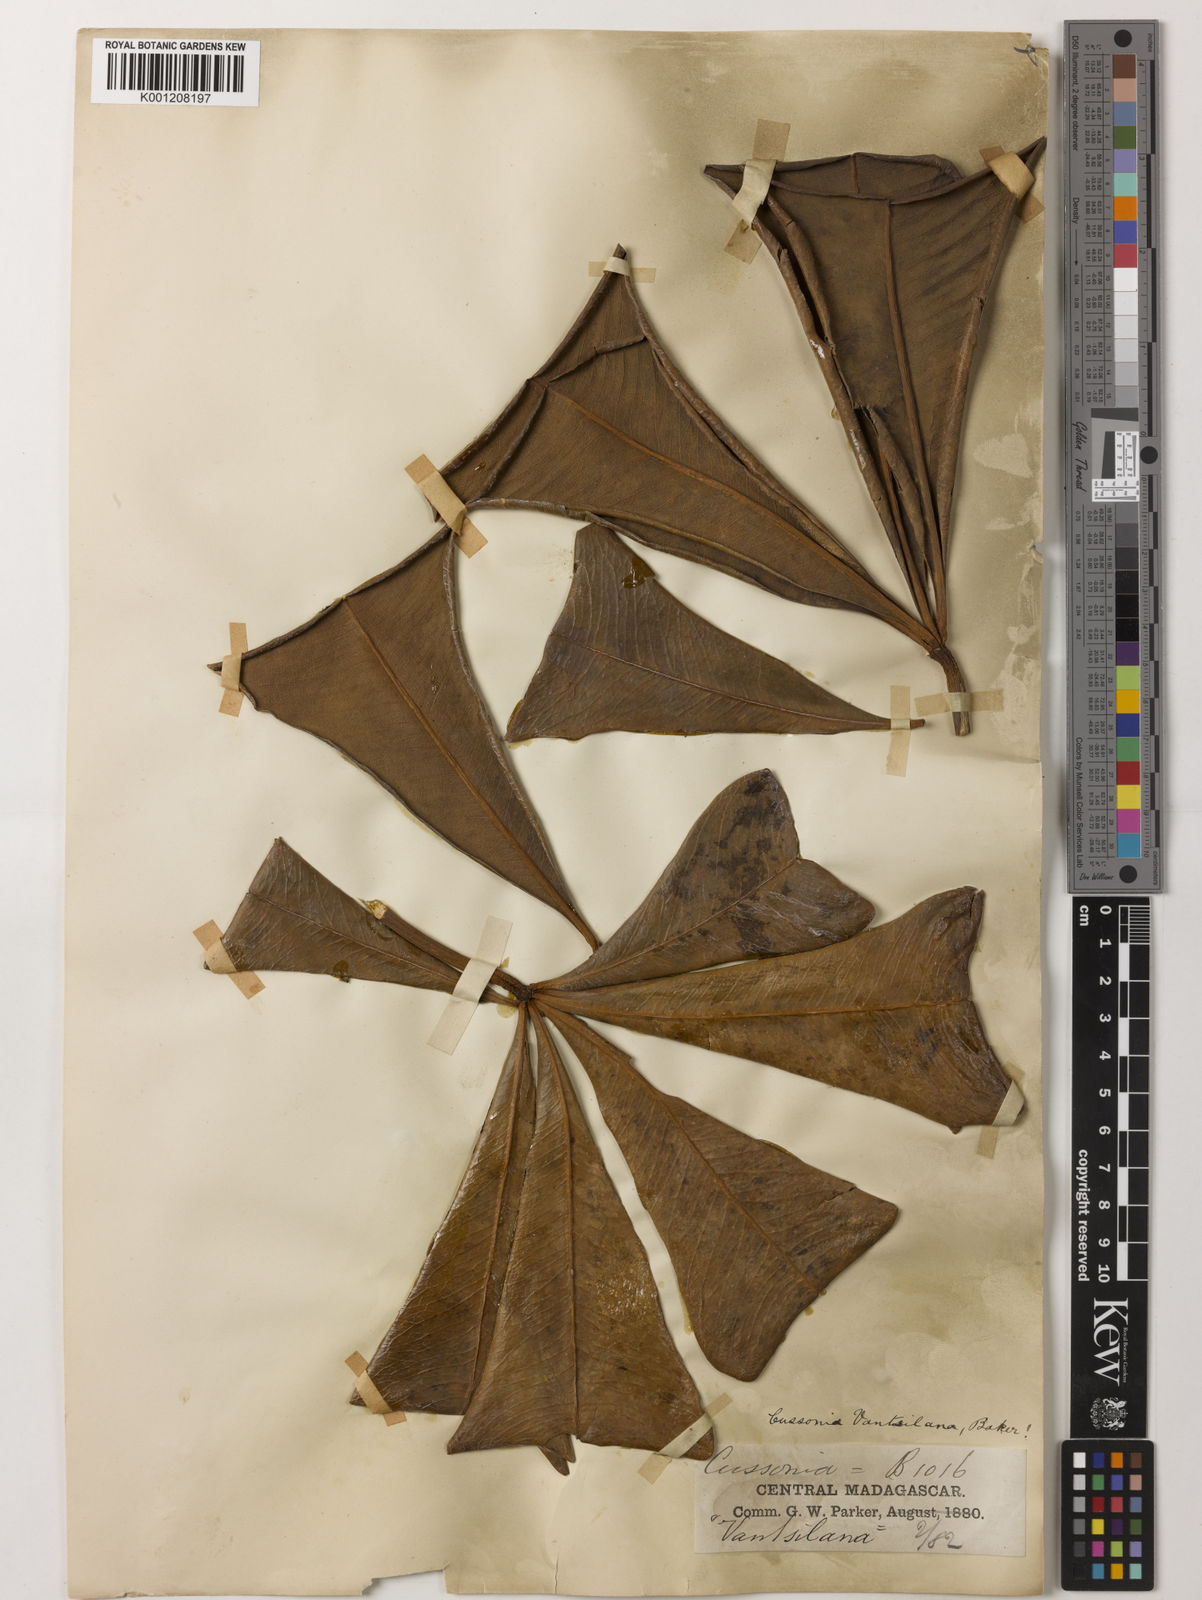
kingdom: Plantae
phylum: Tracheophyta
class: Magnoliopsida
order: Apiales
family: Araliaceae
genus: Neocussonia
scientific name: Neocussonia vantsilana
